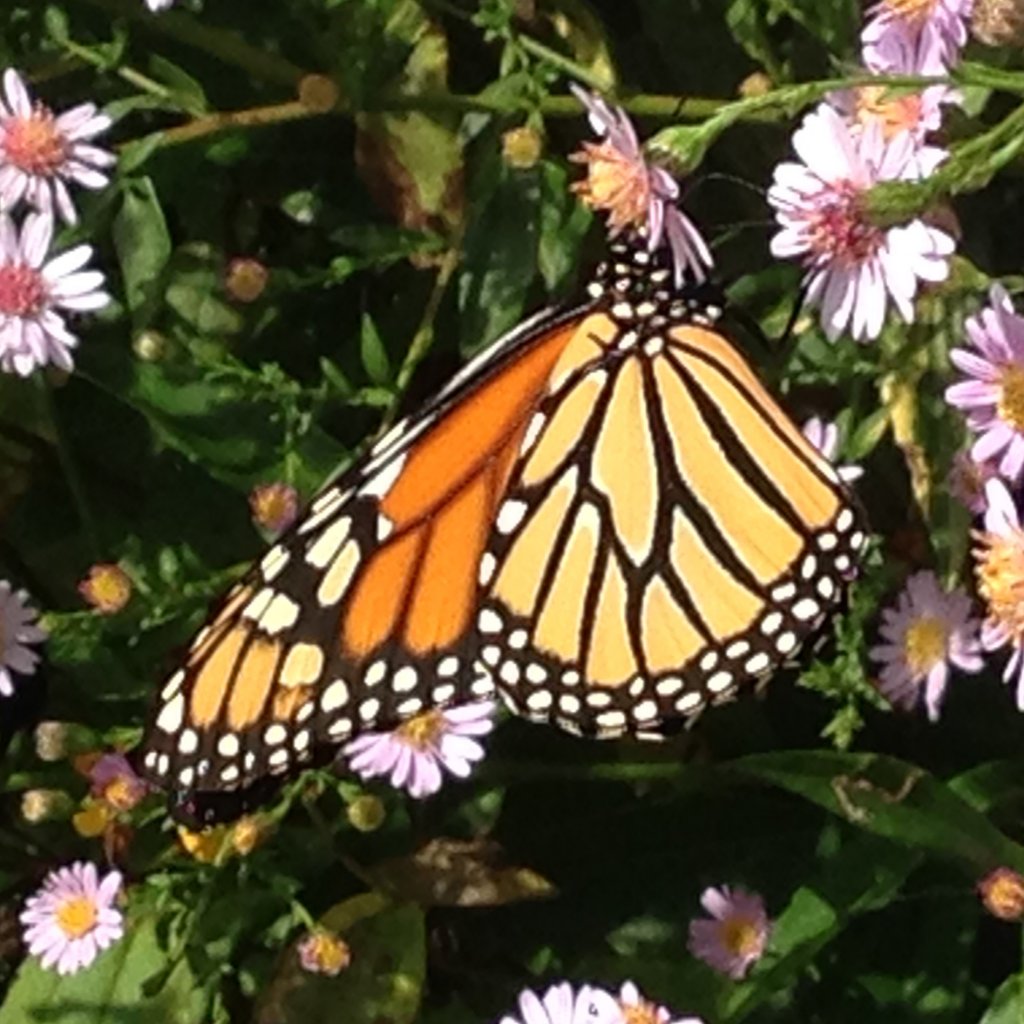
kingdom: Animalia
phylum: Arthropoda
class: Insecta
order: Lepidoptera
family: Nymphalidae
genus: Danaus
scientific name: Danaus plexippus
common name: Monarch
